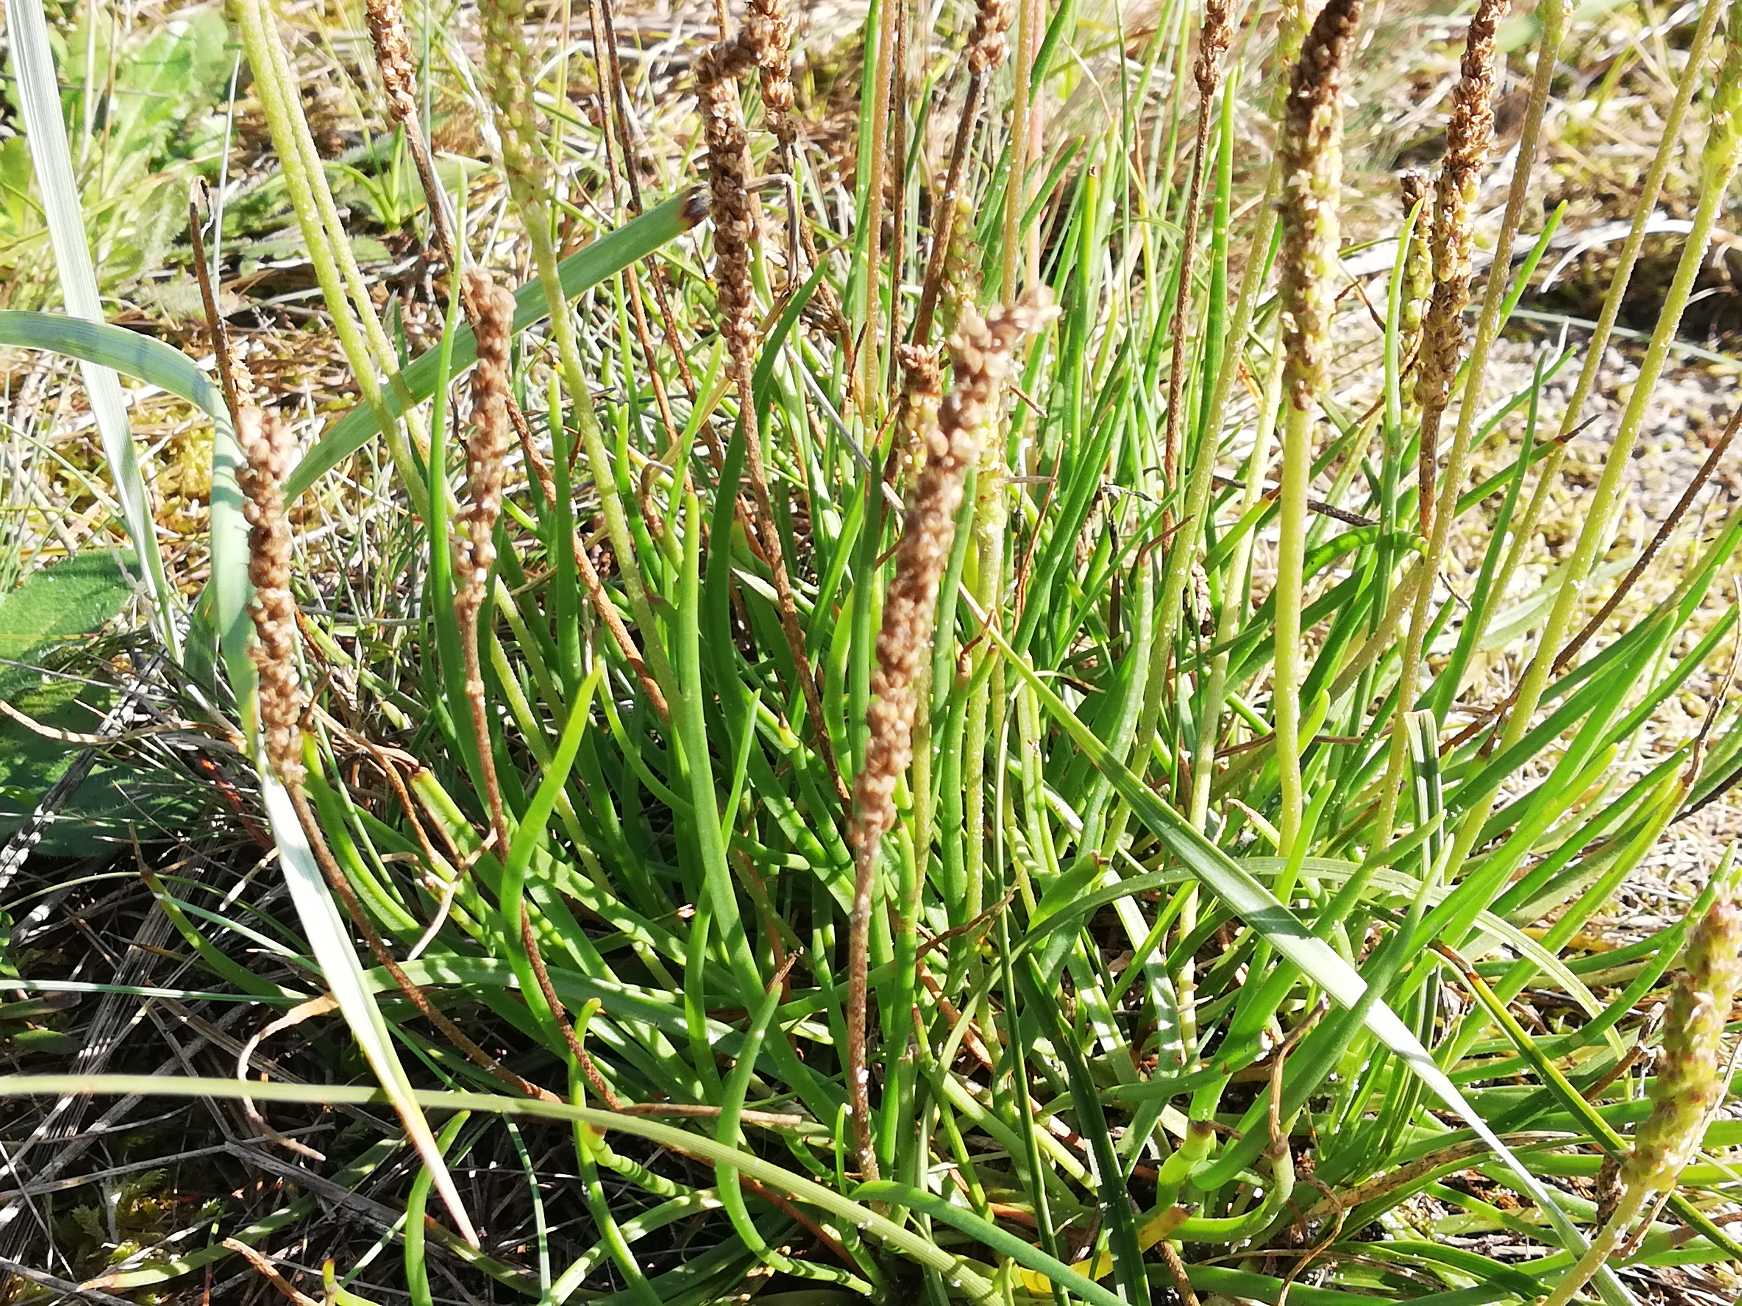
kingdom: Plantae
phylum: Tracheophyta
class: Magnoliopsida
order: Lamiales
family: Plantaginaceae
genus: Plantago
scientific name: Plantago maritima
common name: Strand-vejbred
